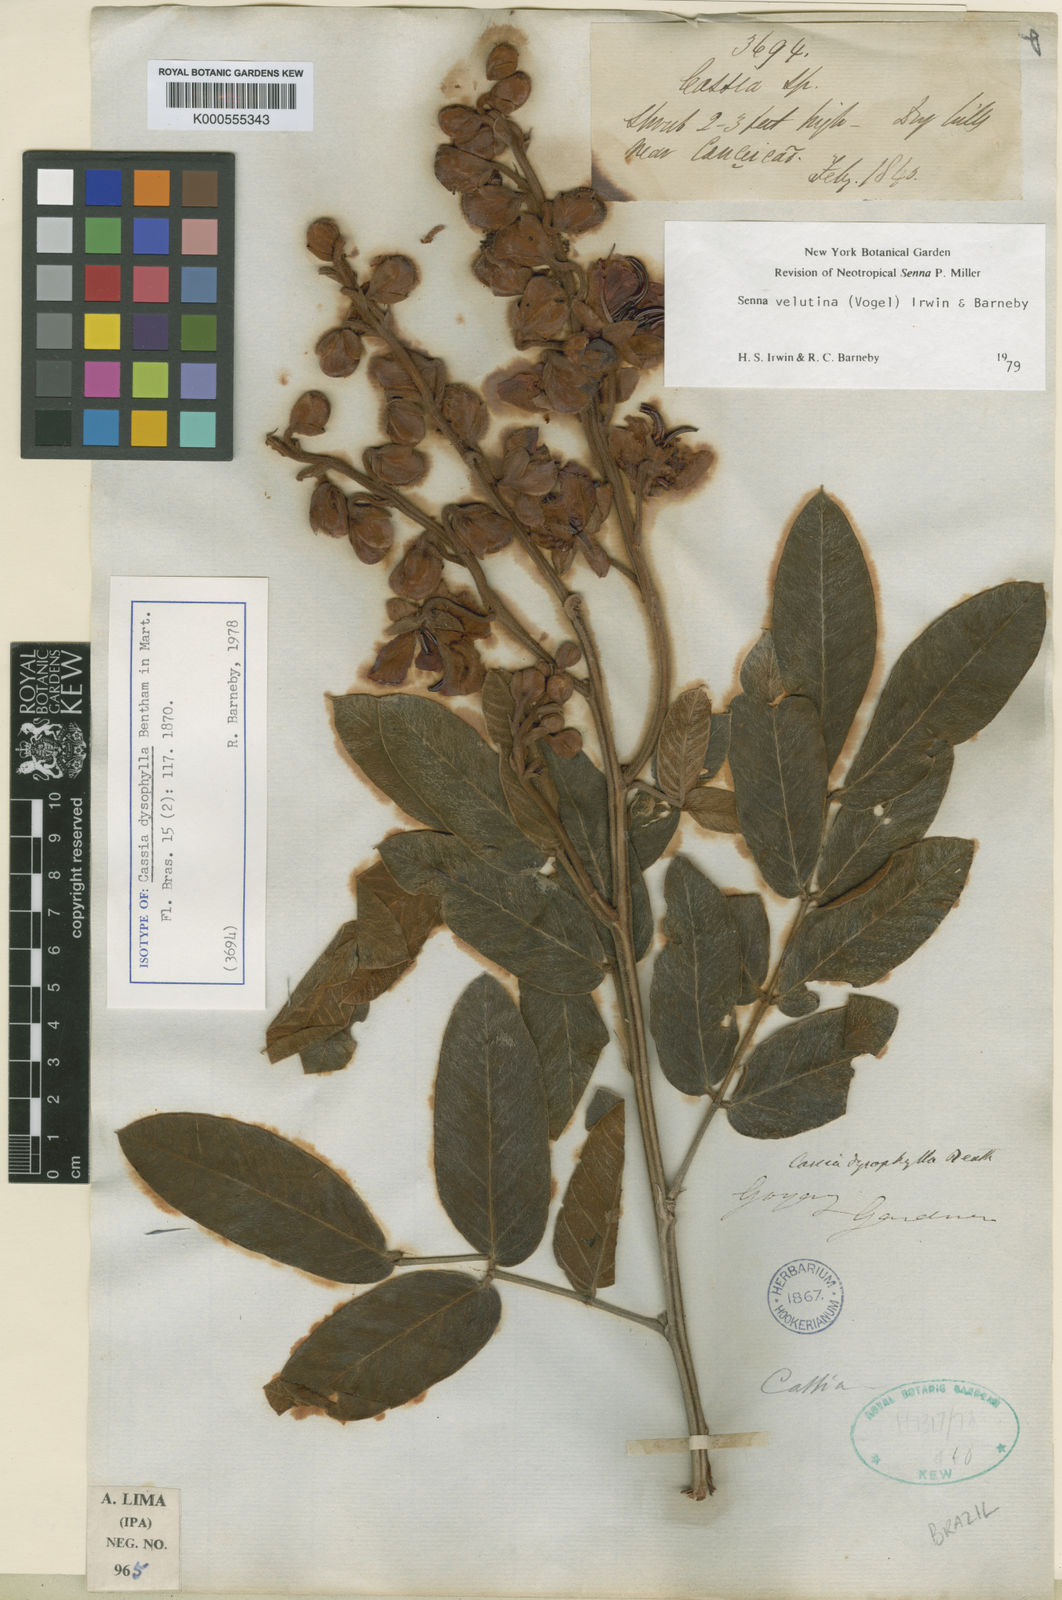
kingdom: Plantae
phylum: Tracheophyta
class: Magnoliopsida
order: Fabales
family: Fabaceae
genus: Senna
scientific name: Senna velutina
